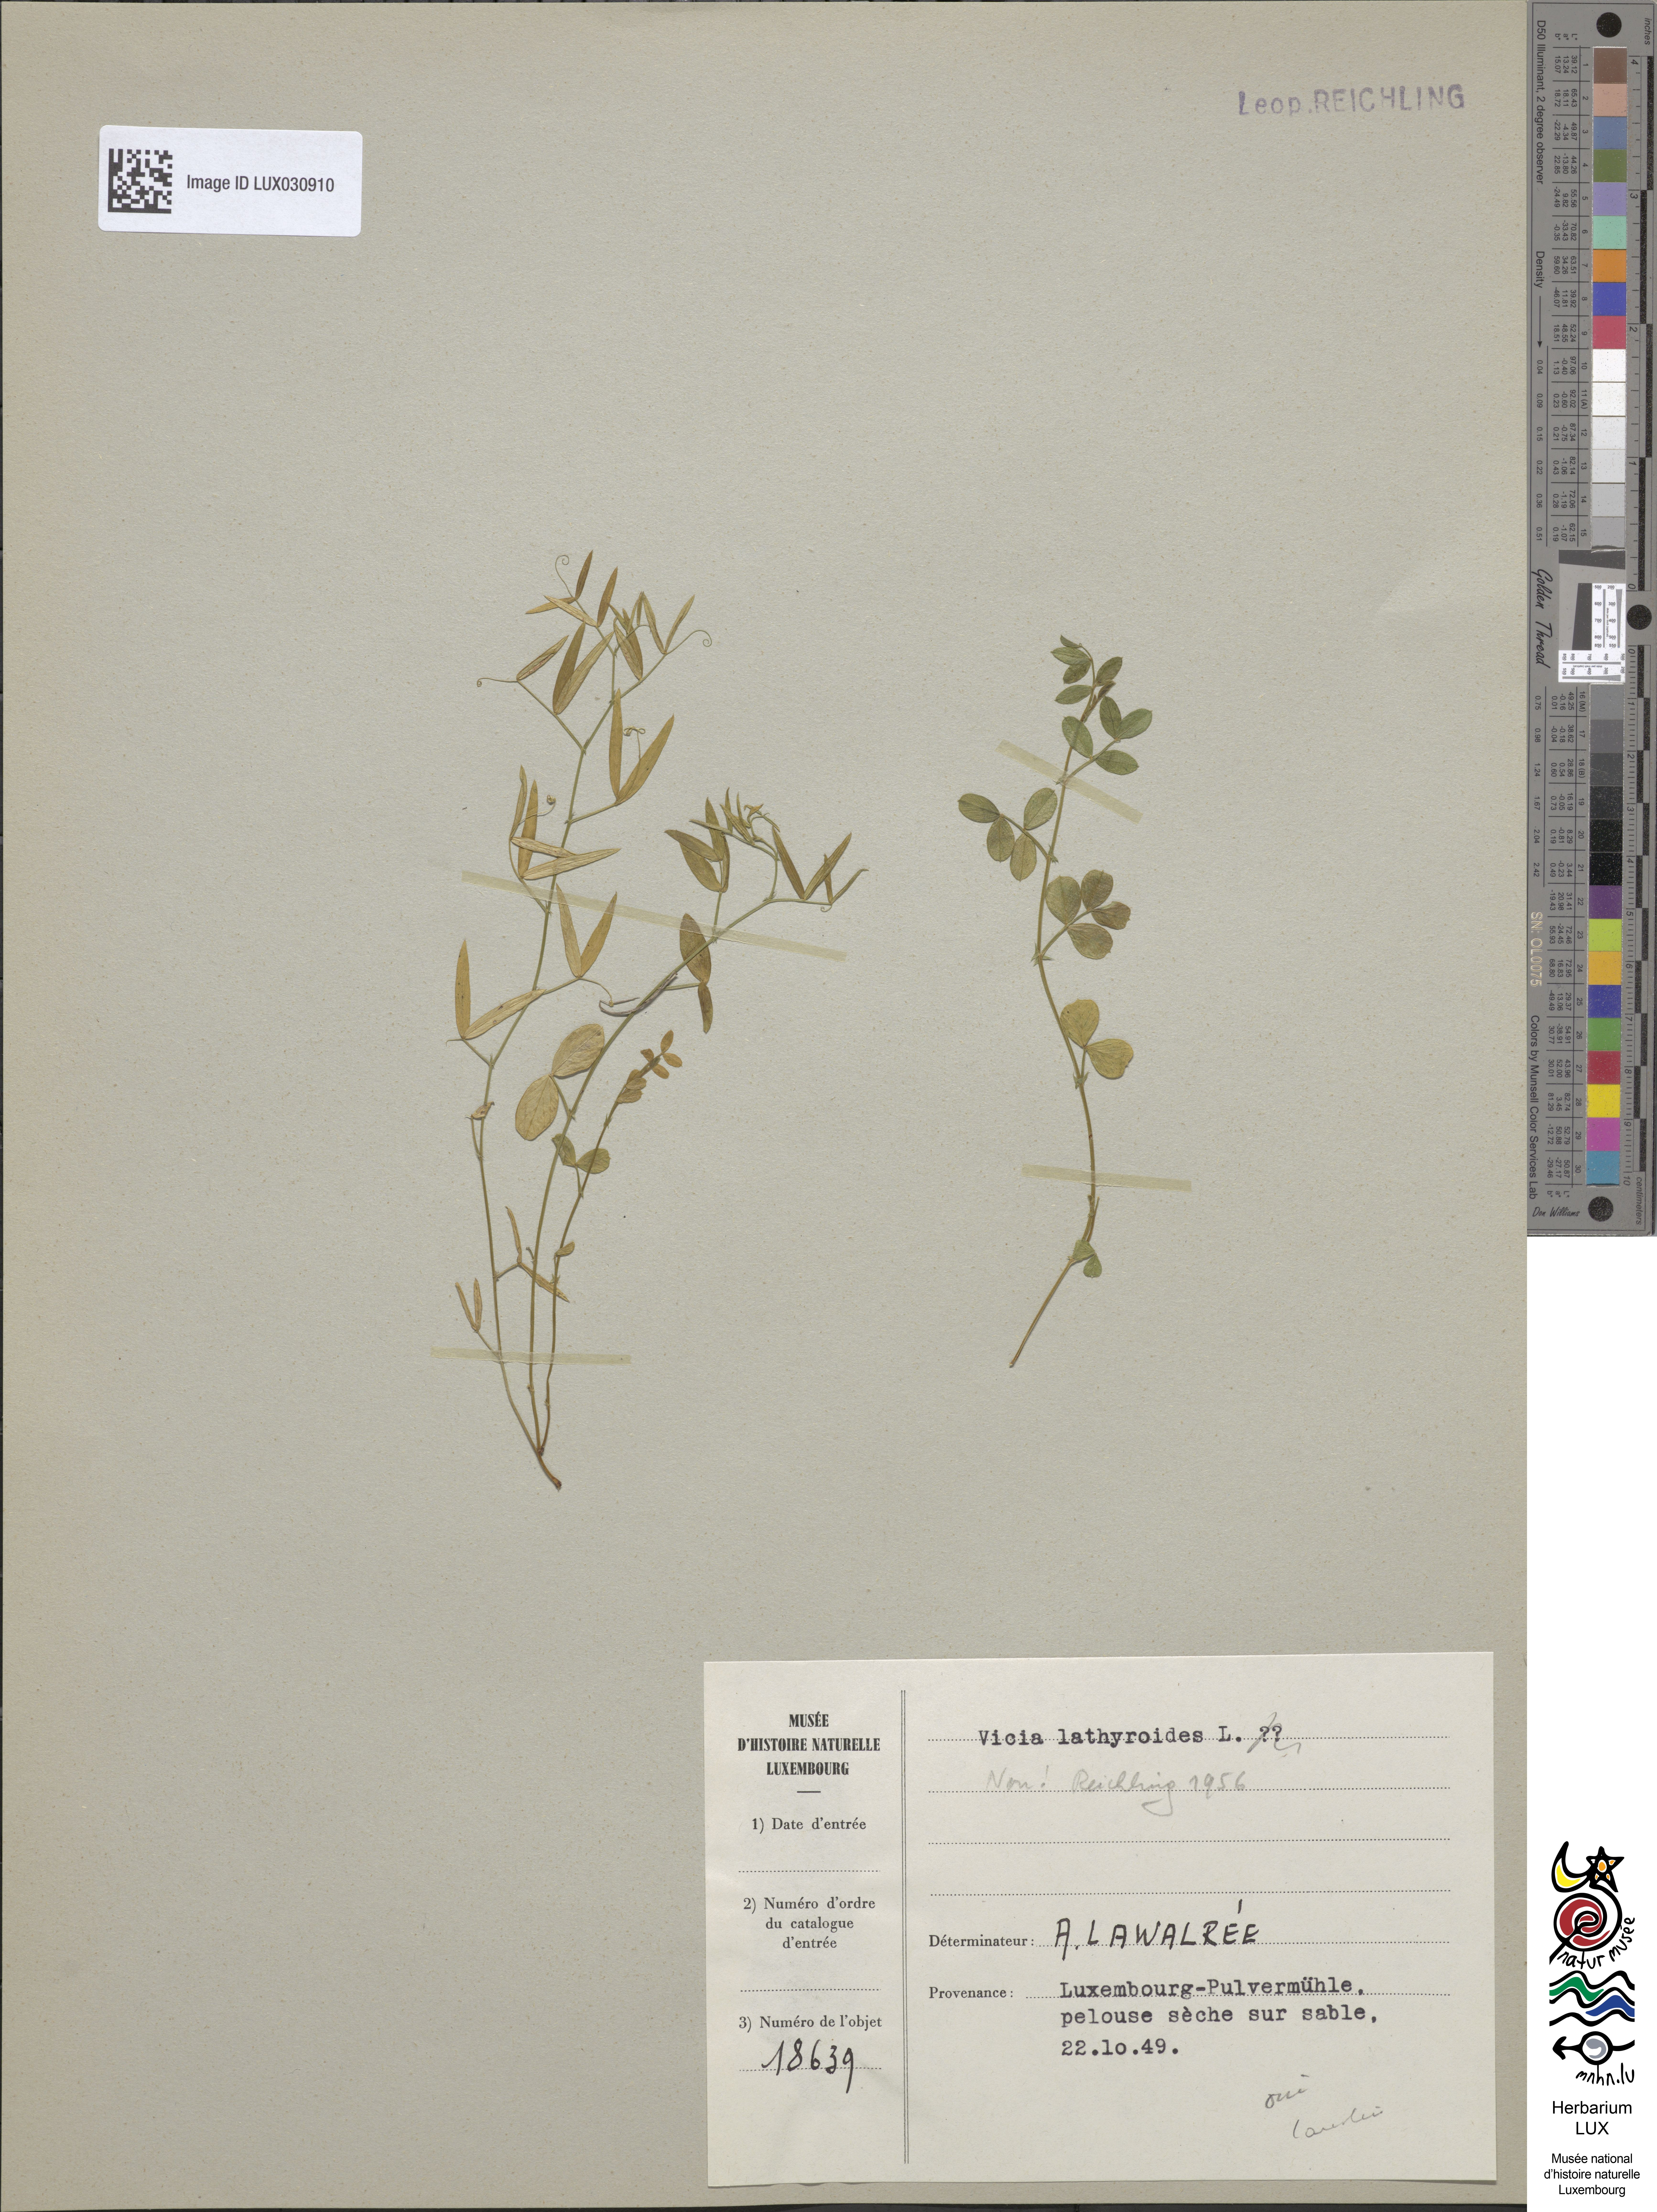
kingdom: Plantae
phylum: Tracheophyta
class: Magnoliopsida
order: Fabales
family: Fabaceae
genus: Vicia
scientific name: Vicia lathyroides
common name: Spring vetch
